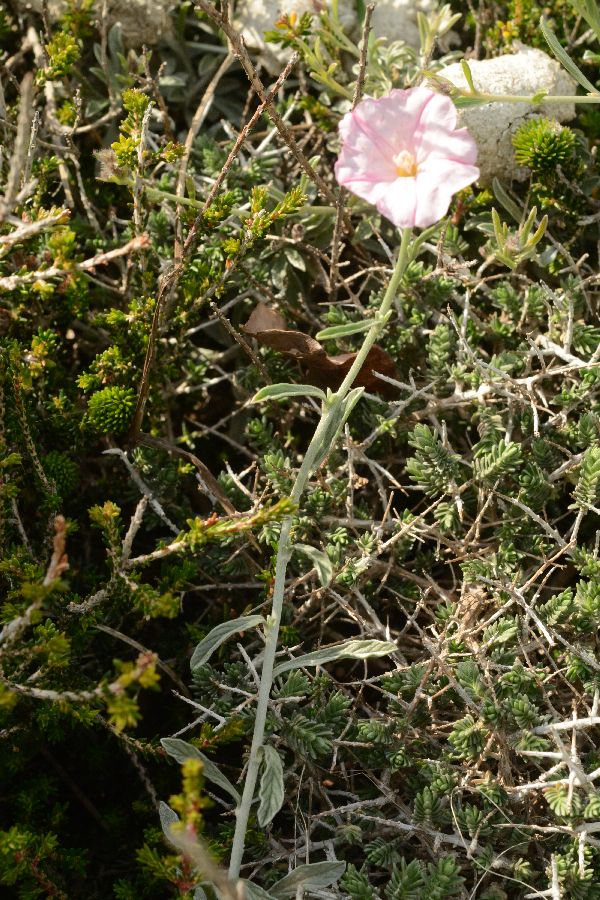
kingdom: Plantae
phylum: Tracheophyta
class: Magnoliopsida
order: Solanales
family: Convolvulaceae
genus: Convolvulus
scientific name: Convolvulus oleifolius
